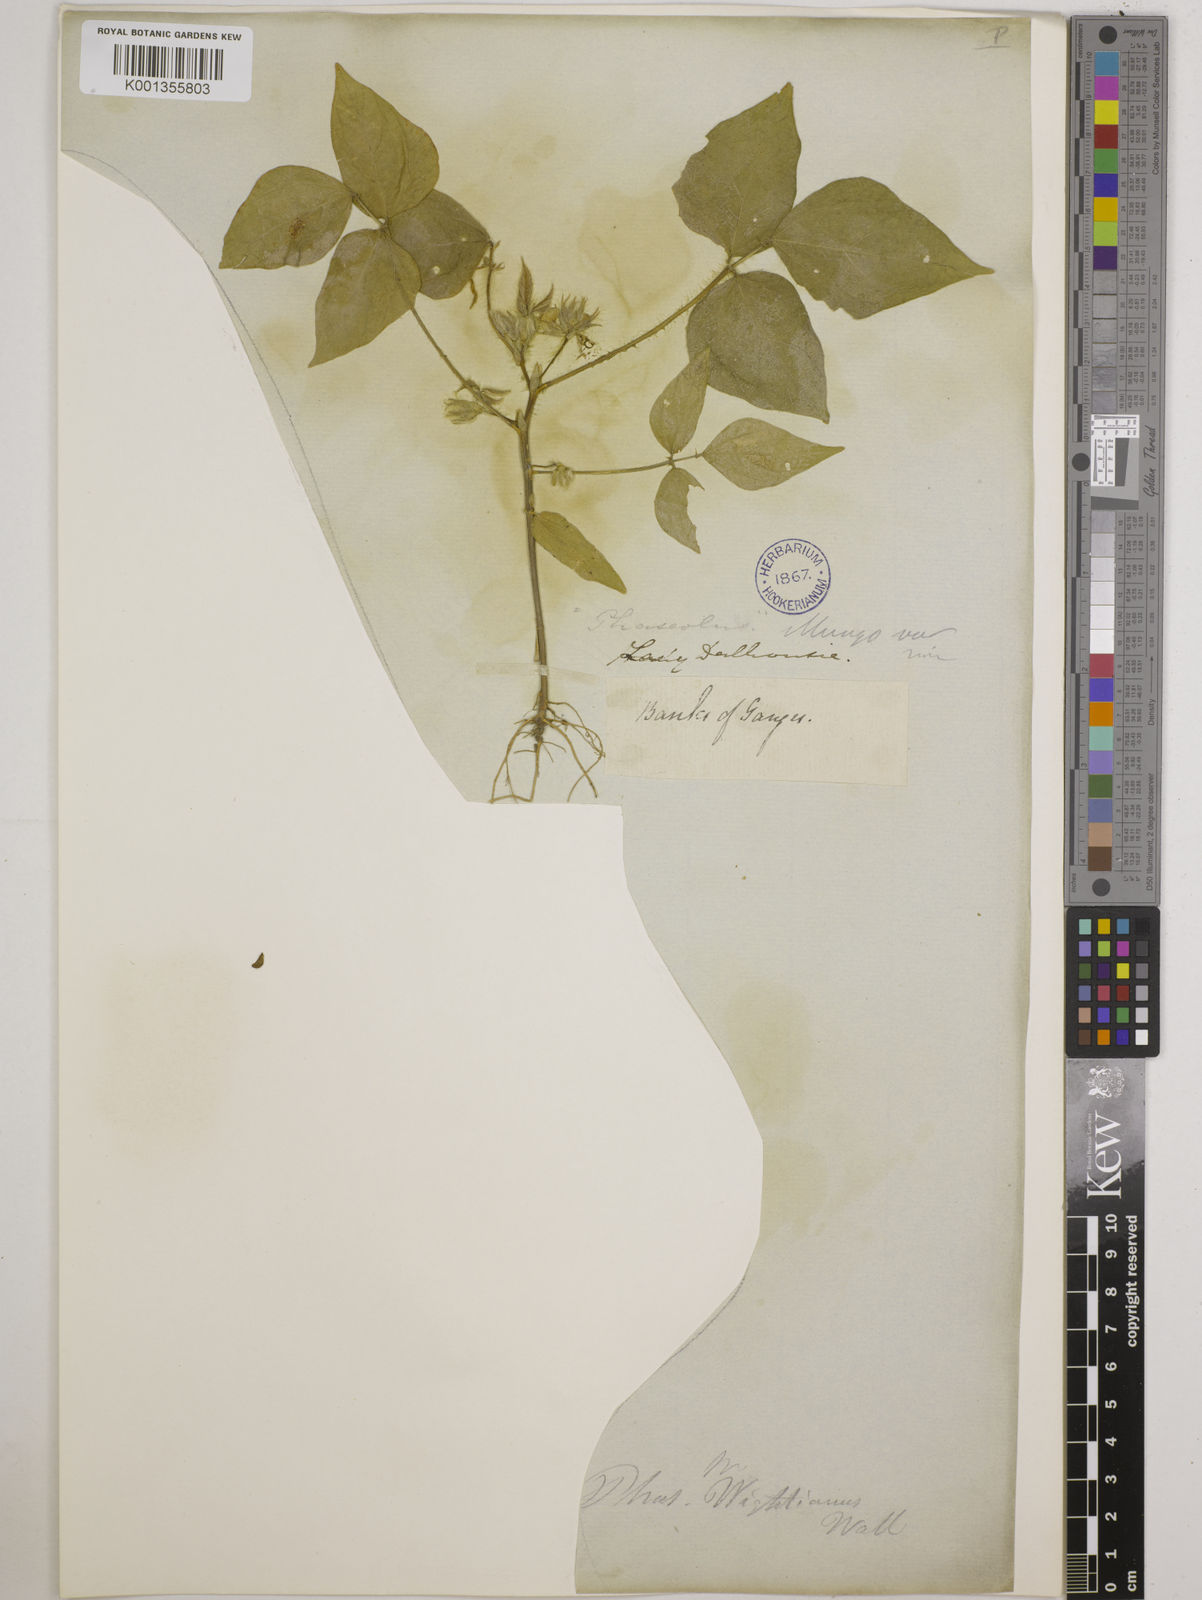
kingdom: Plantae
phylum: Tracheophyta
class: Magnoliopsida
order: Fabales
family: Fabaceae
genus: Vigna
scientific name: Vigna mungo
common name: Black gram
